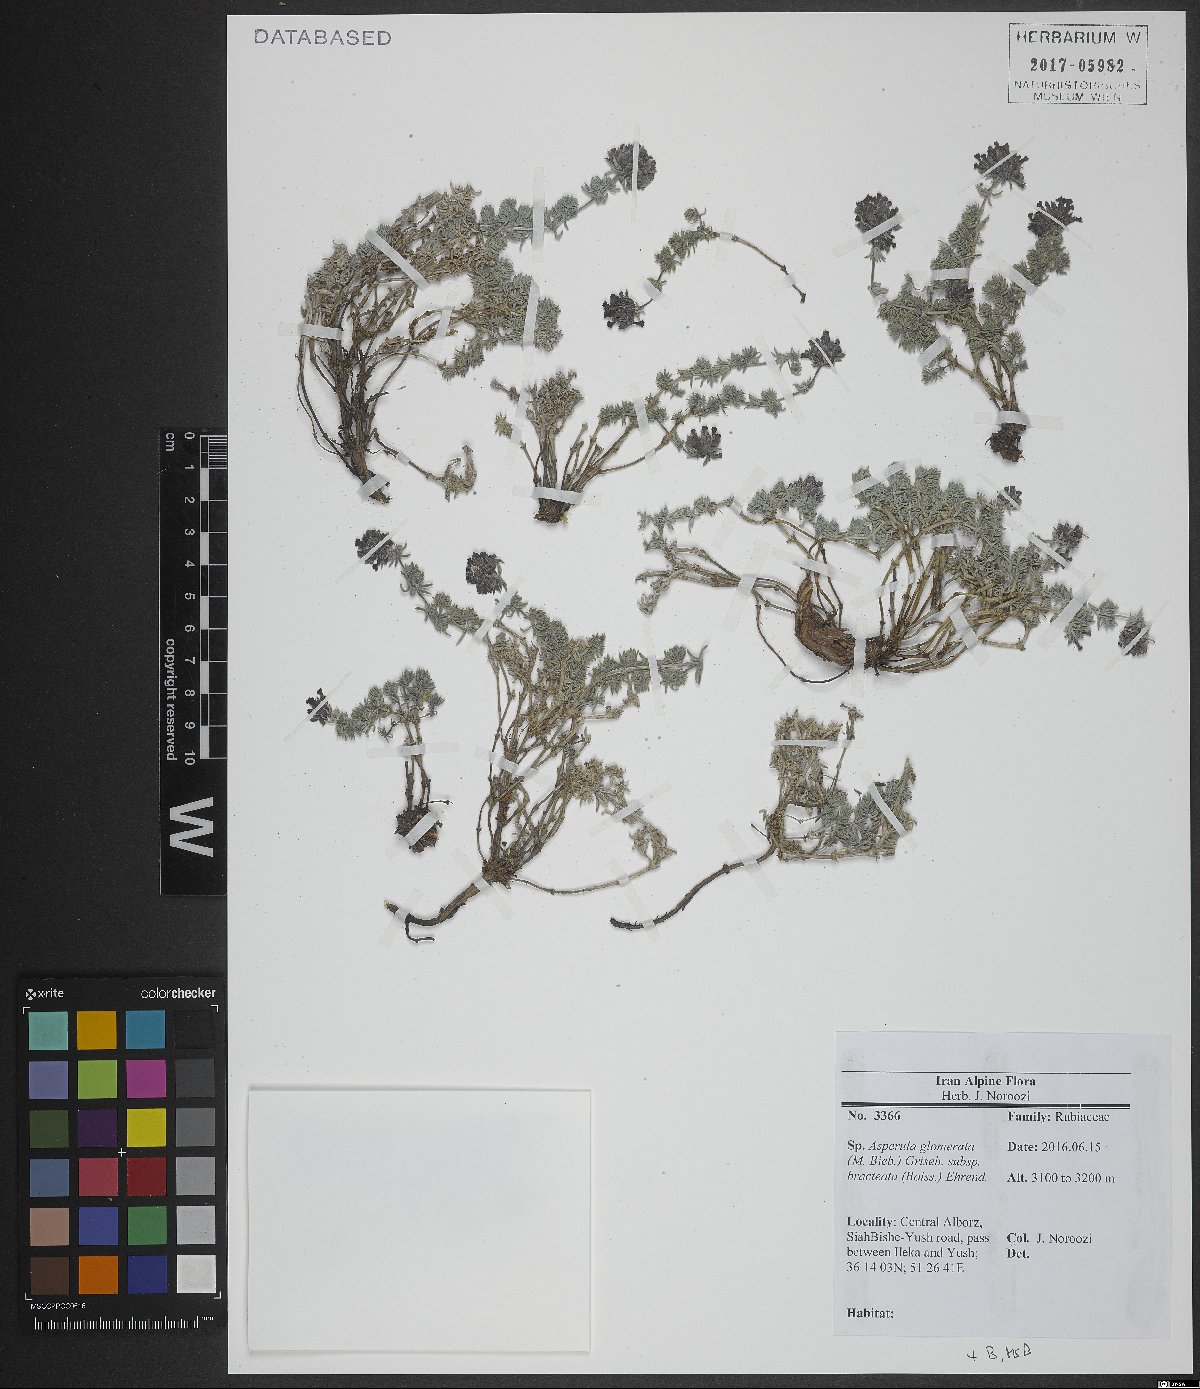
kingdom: Plantae
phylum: Tracheophyta
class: Magnoliopsida
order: Gentianales
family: Rubiaceae
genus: Asperula
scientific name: Asperula glomerata
